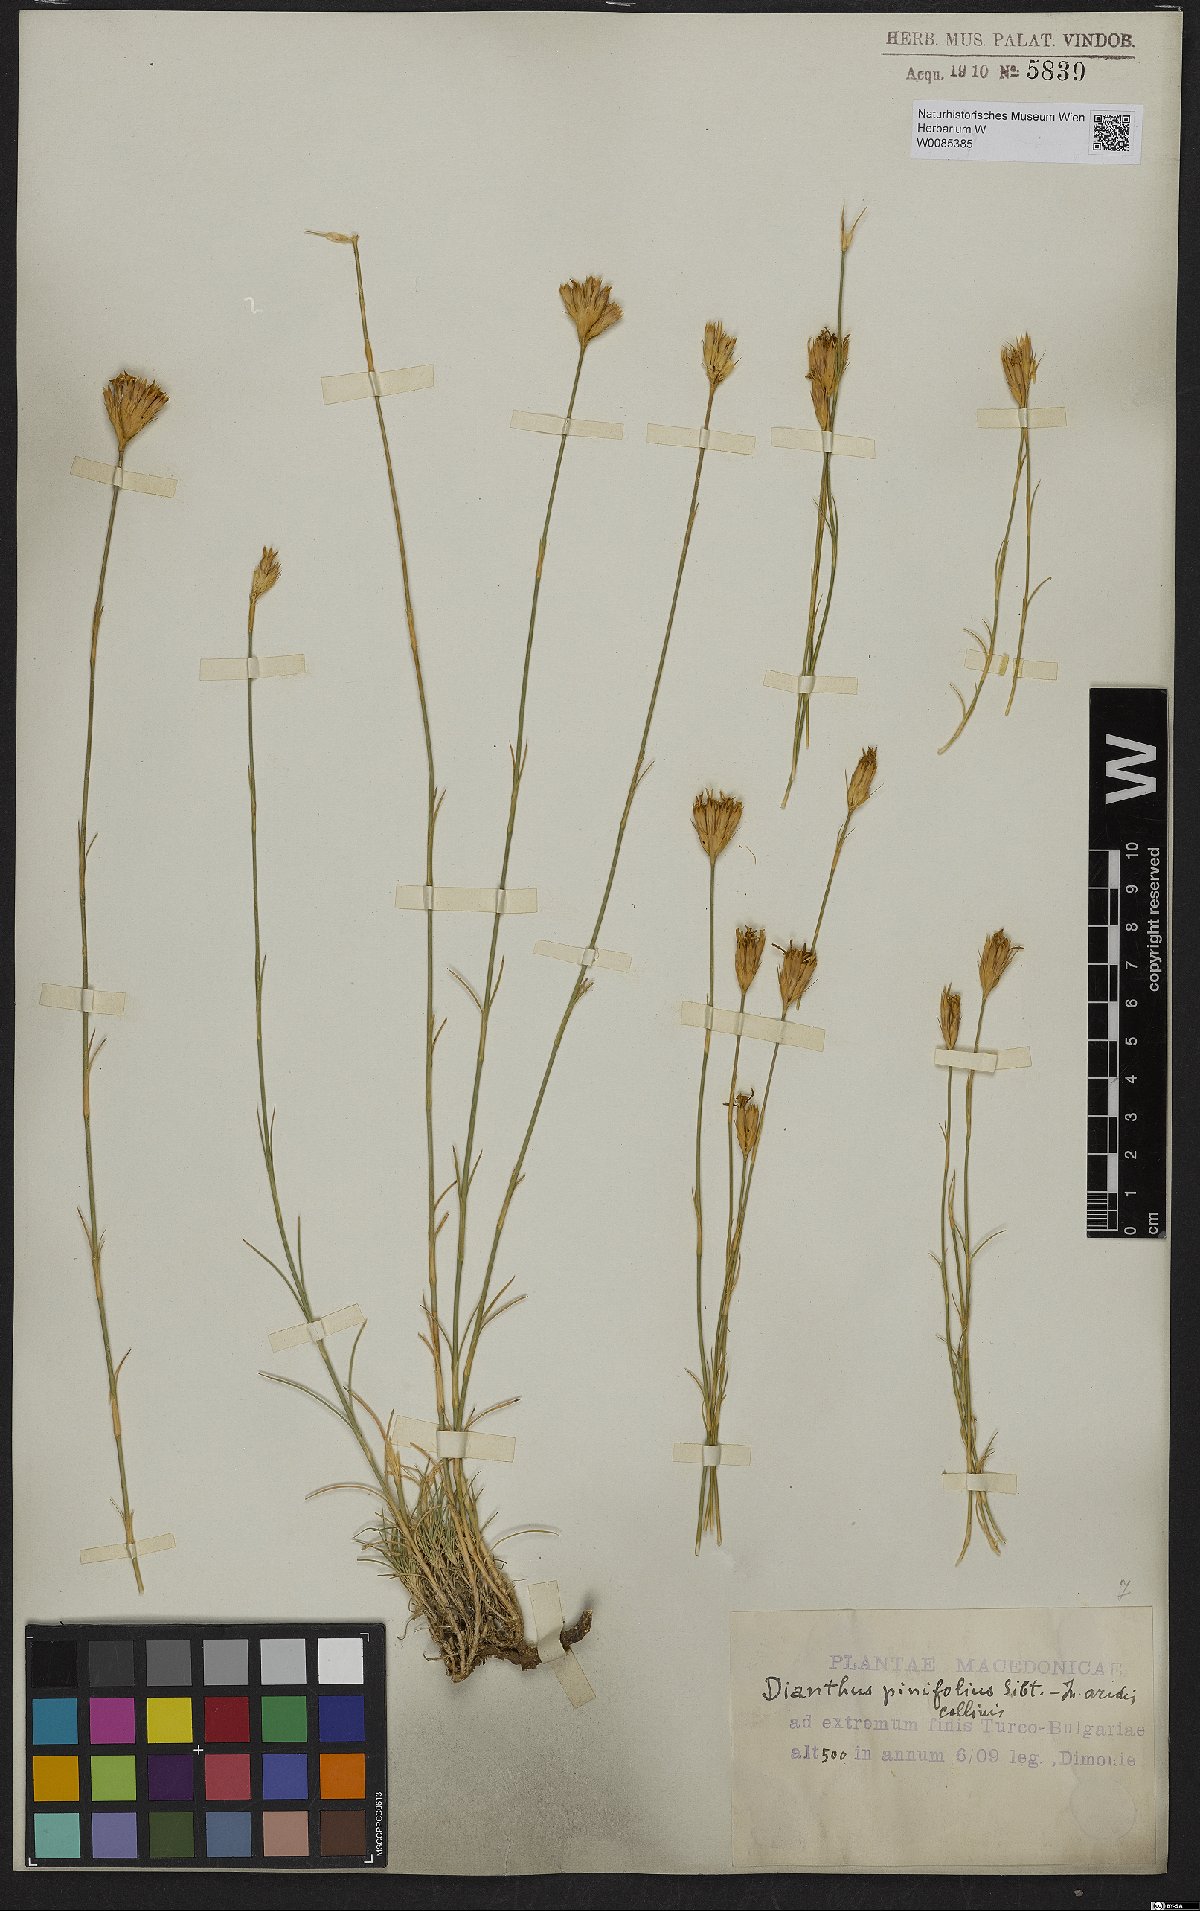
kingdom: Plantae
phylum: Tracheophyta
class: Magnoliopsida
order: Caryophyllales
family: Caryophyllaceae
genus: Dianthus
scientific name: Dianthus pinifolius
